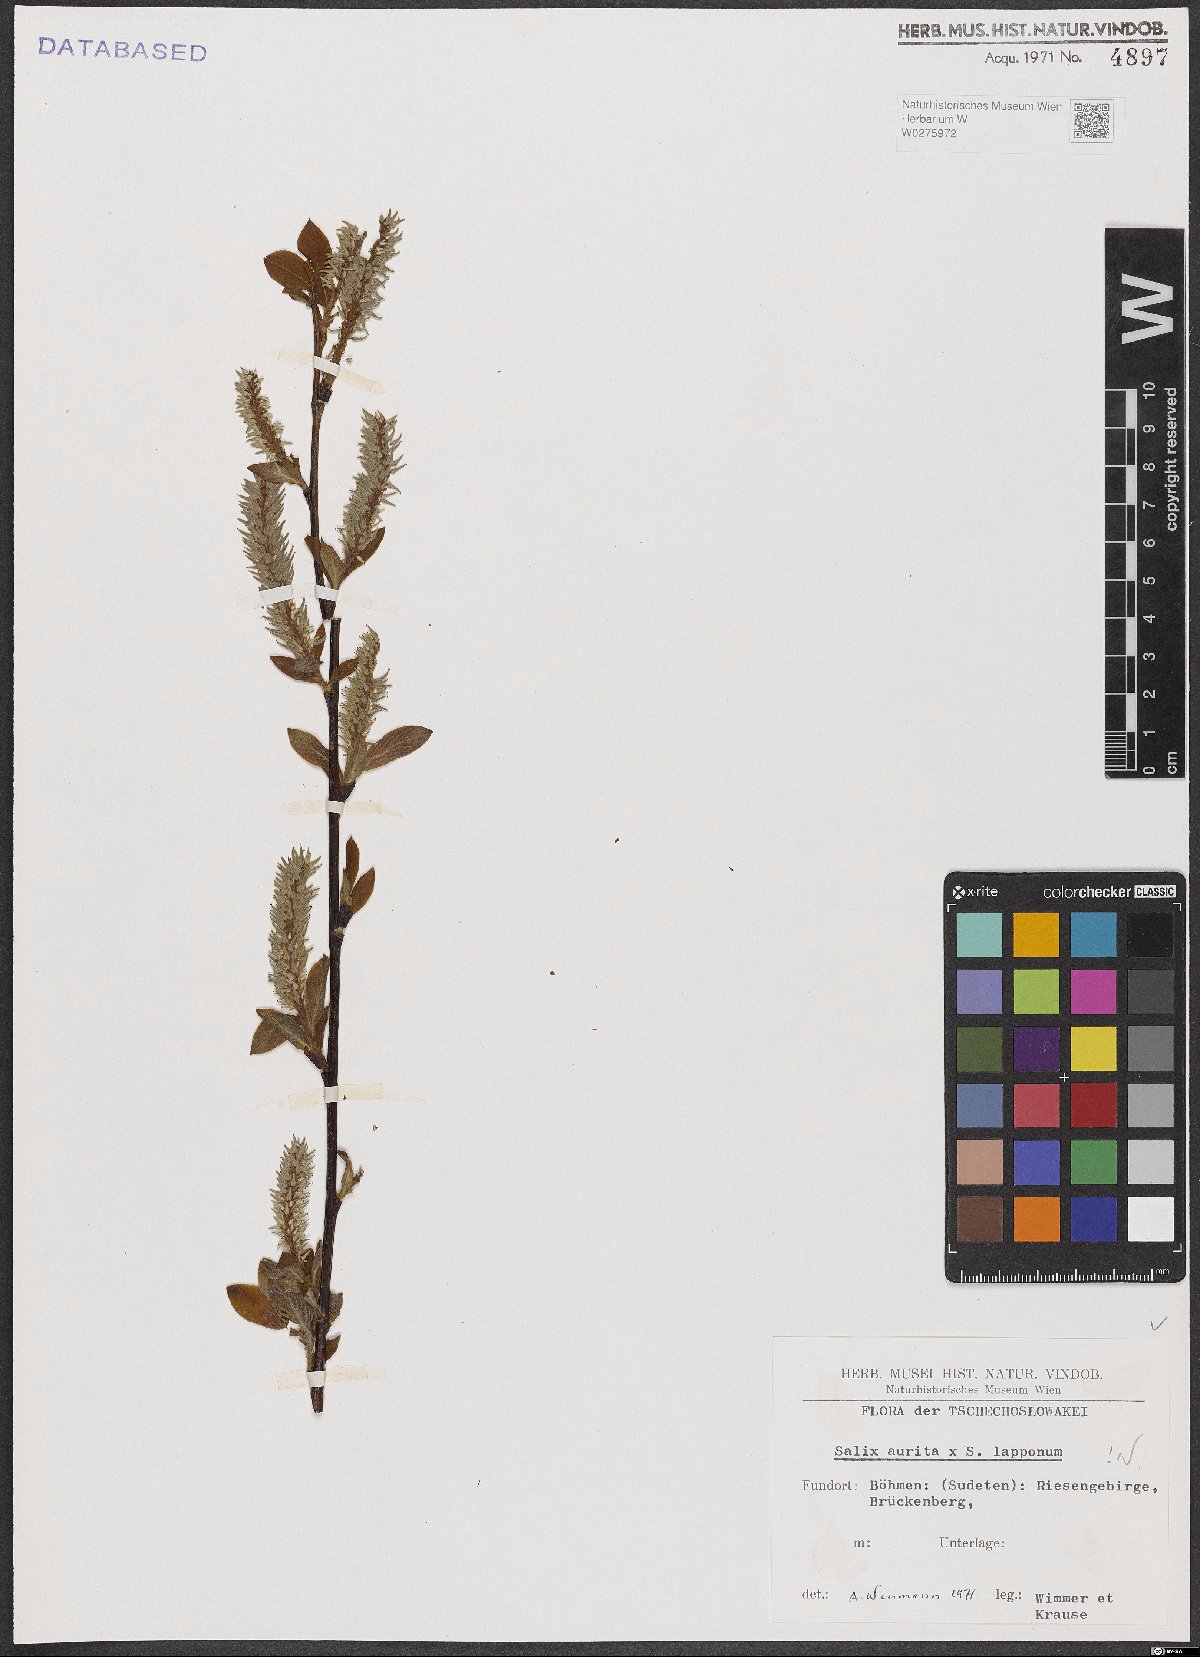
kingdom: Plantae
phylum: Tracheophyta
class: Magnoliopsida
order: Malpighiales
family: Salicaceae
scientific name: Salicaceae
